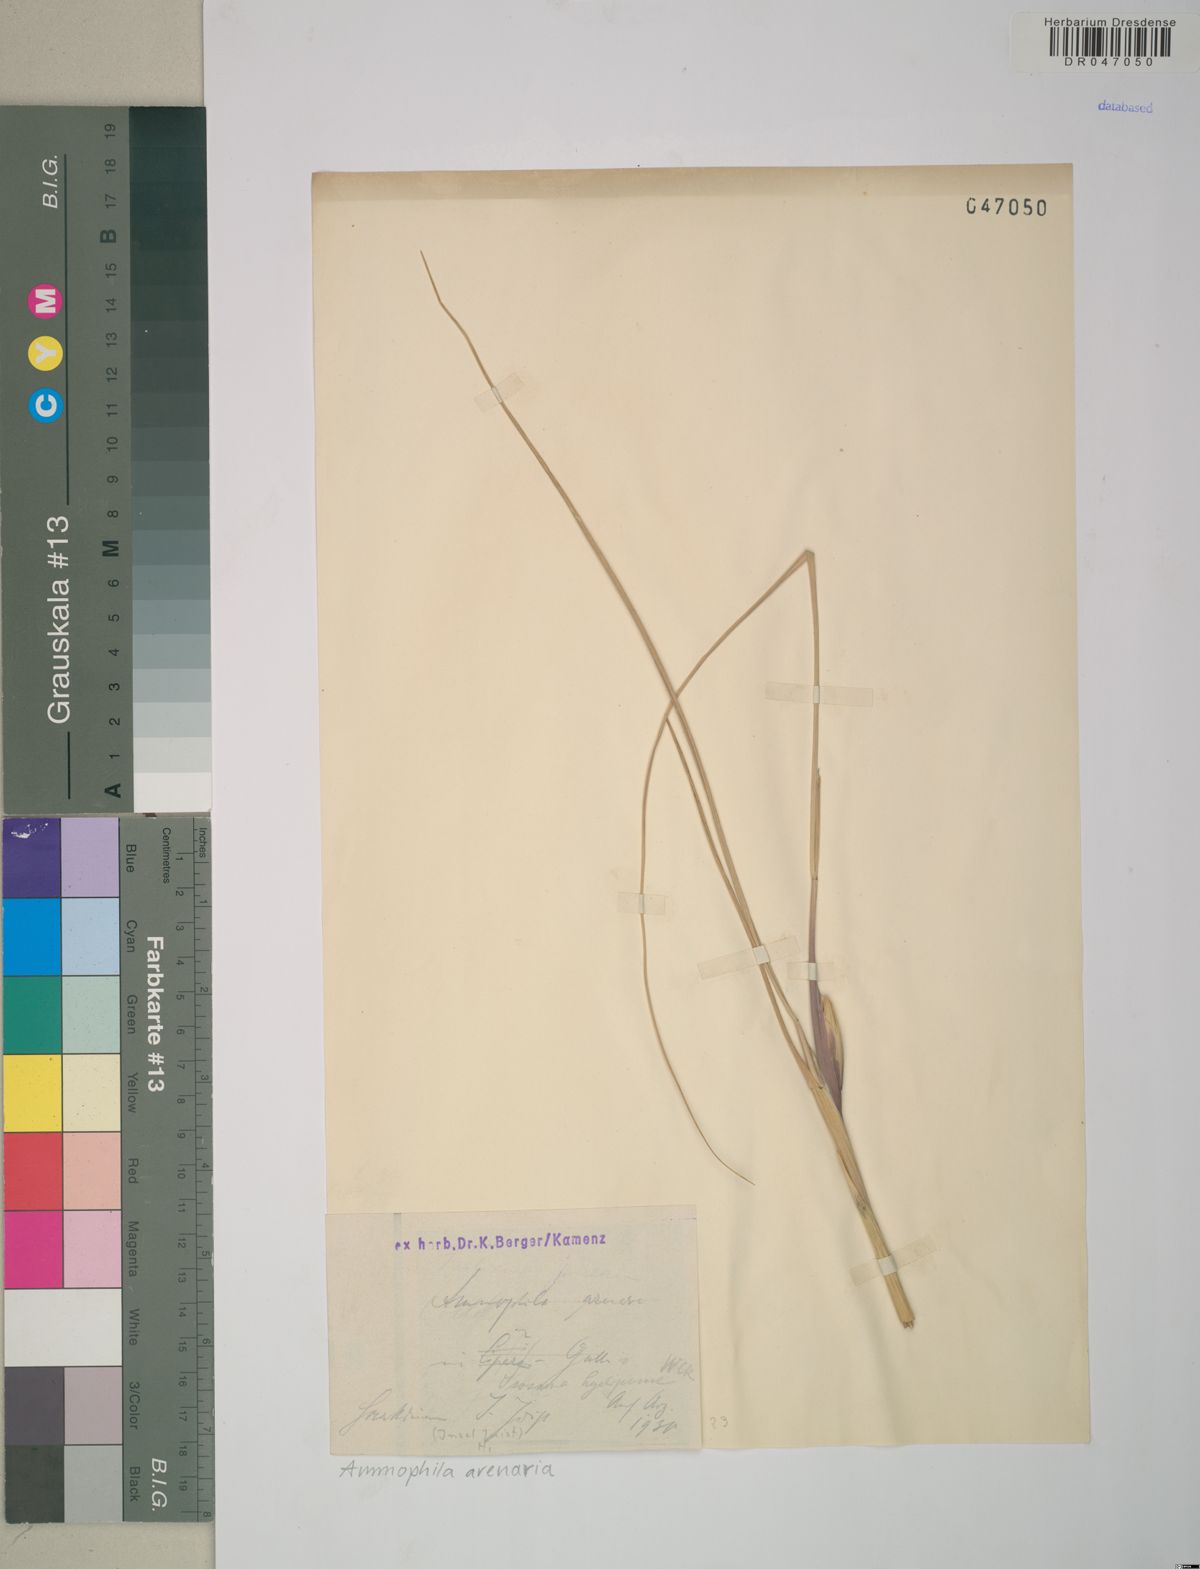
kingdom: Plantae
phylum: Tracheophyta
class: Liliopsida
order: Poales
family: Poaceae
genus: Calamagrostis
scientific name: Calamagrostis arenaria
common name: European beachgrass
